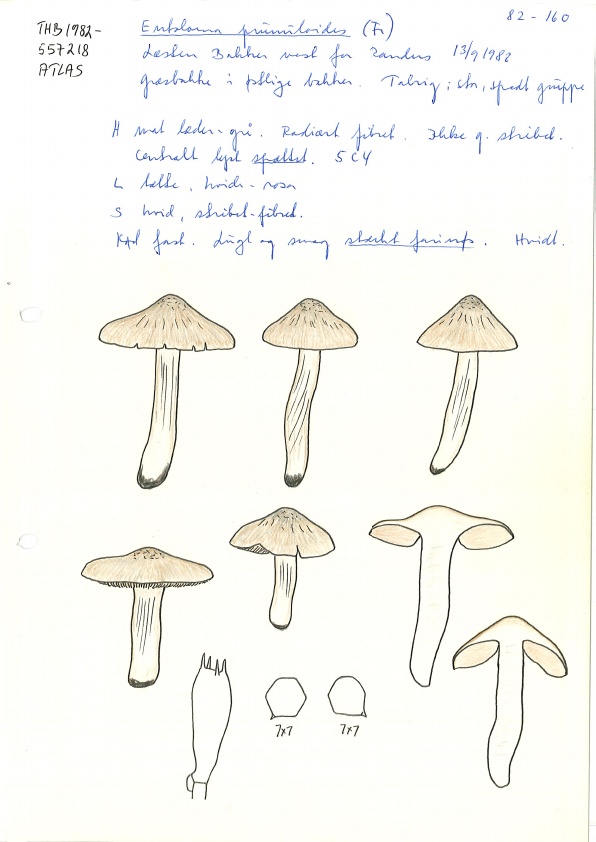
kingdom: Fungi
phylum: Basidiomycota
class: Agaricomycetes
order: Agaricales
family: Entolomataceae
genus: Entoloma
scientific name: Entoloma prunuloides
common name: mel-rødblad
